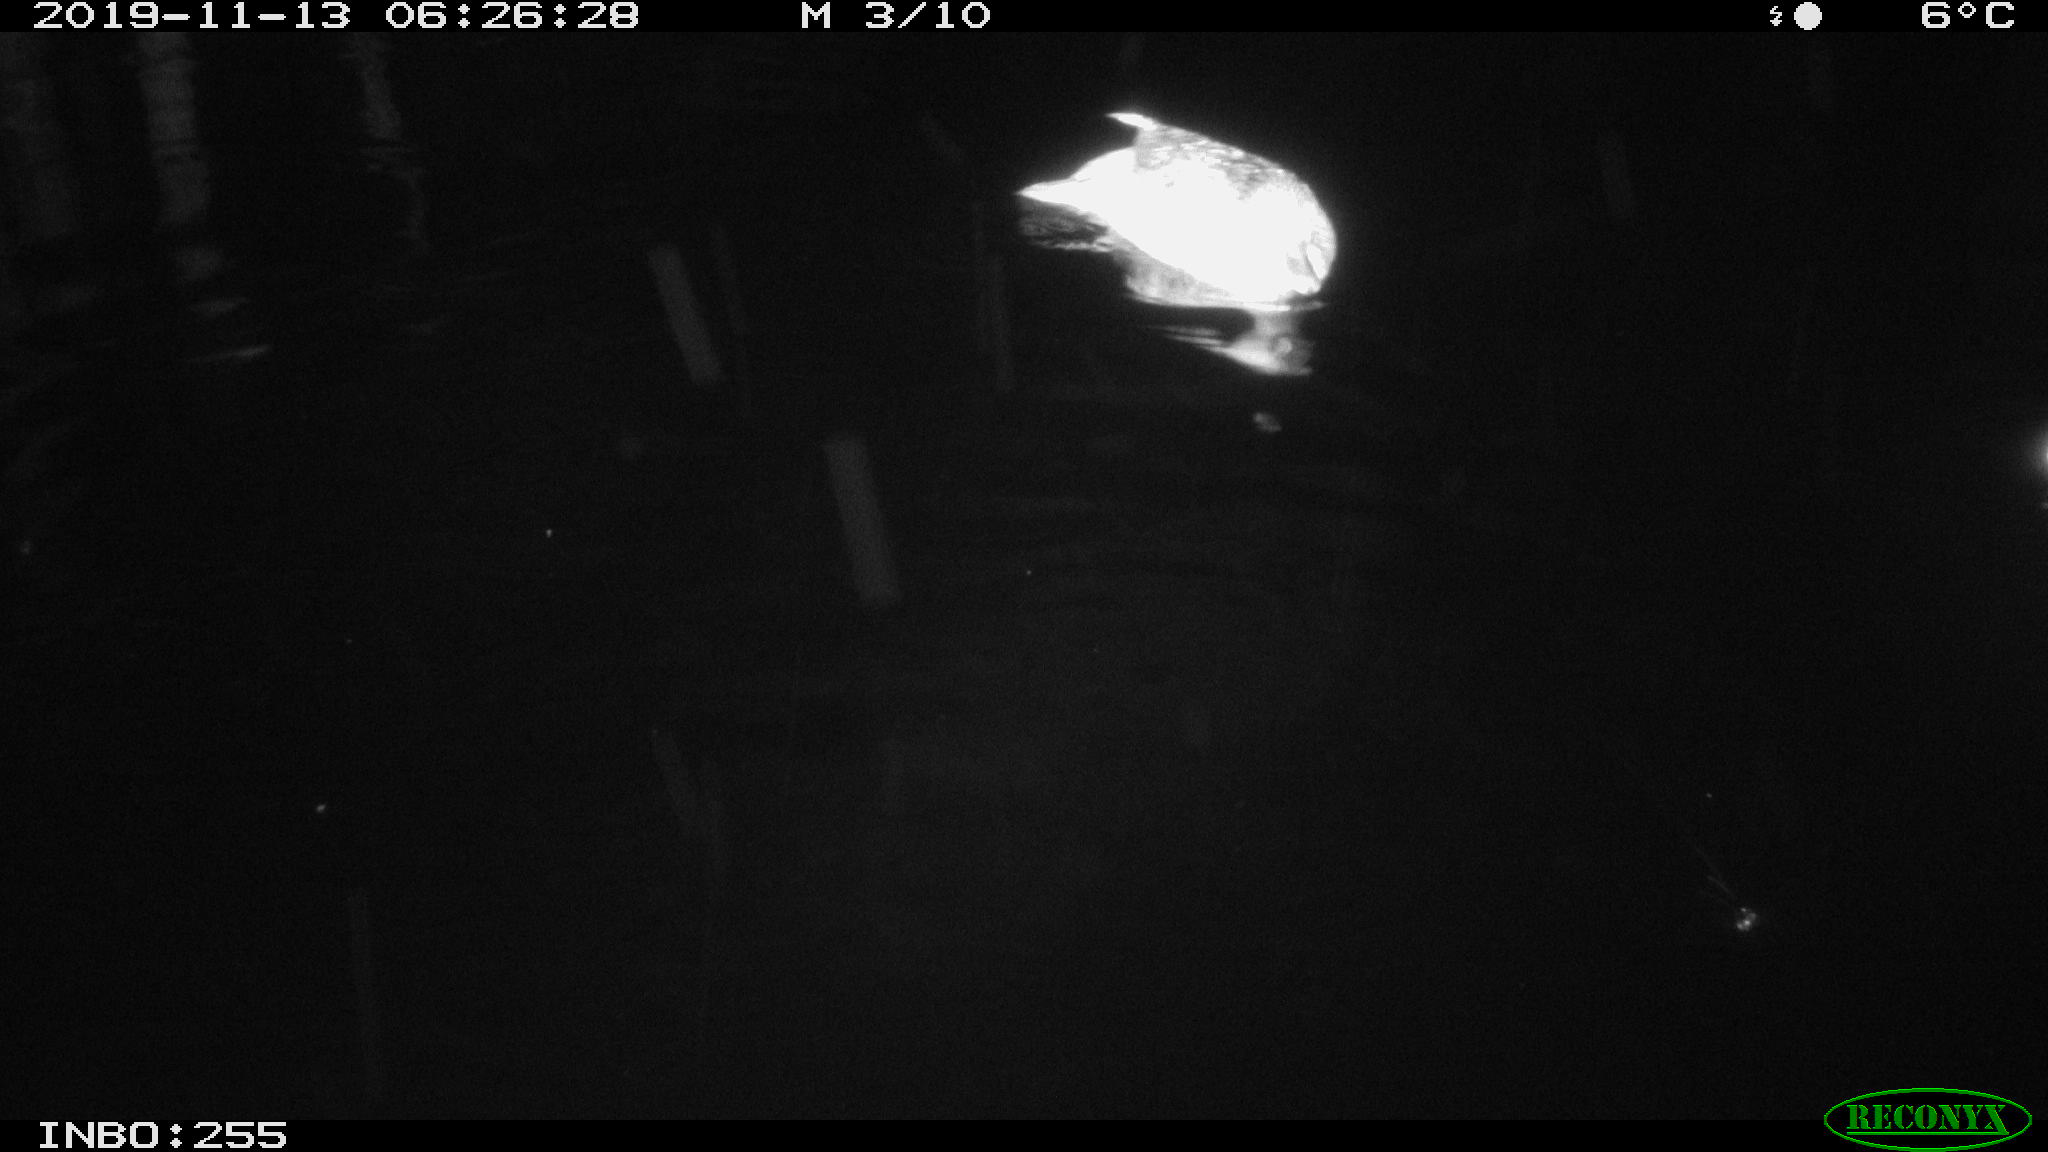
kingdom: Animalia
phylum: Chordata
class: Mammalia
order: Rodentia
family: Muridae
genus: Rattus
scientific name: Rattus norvegicus
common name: Brown rat
